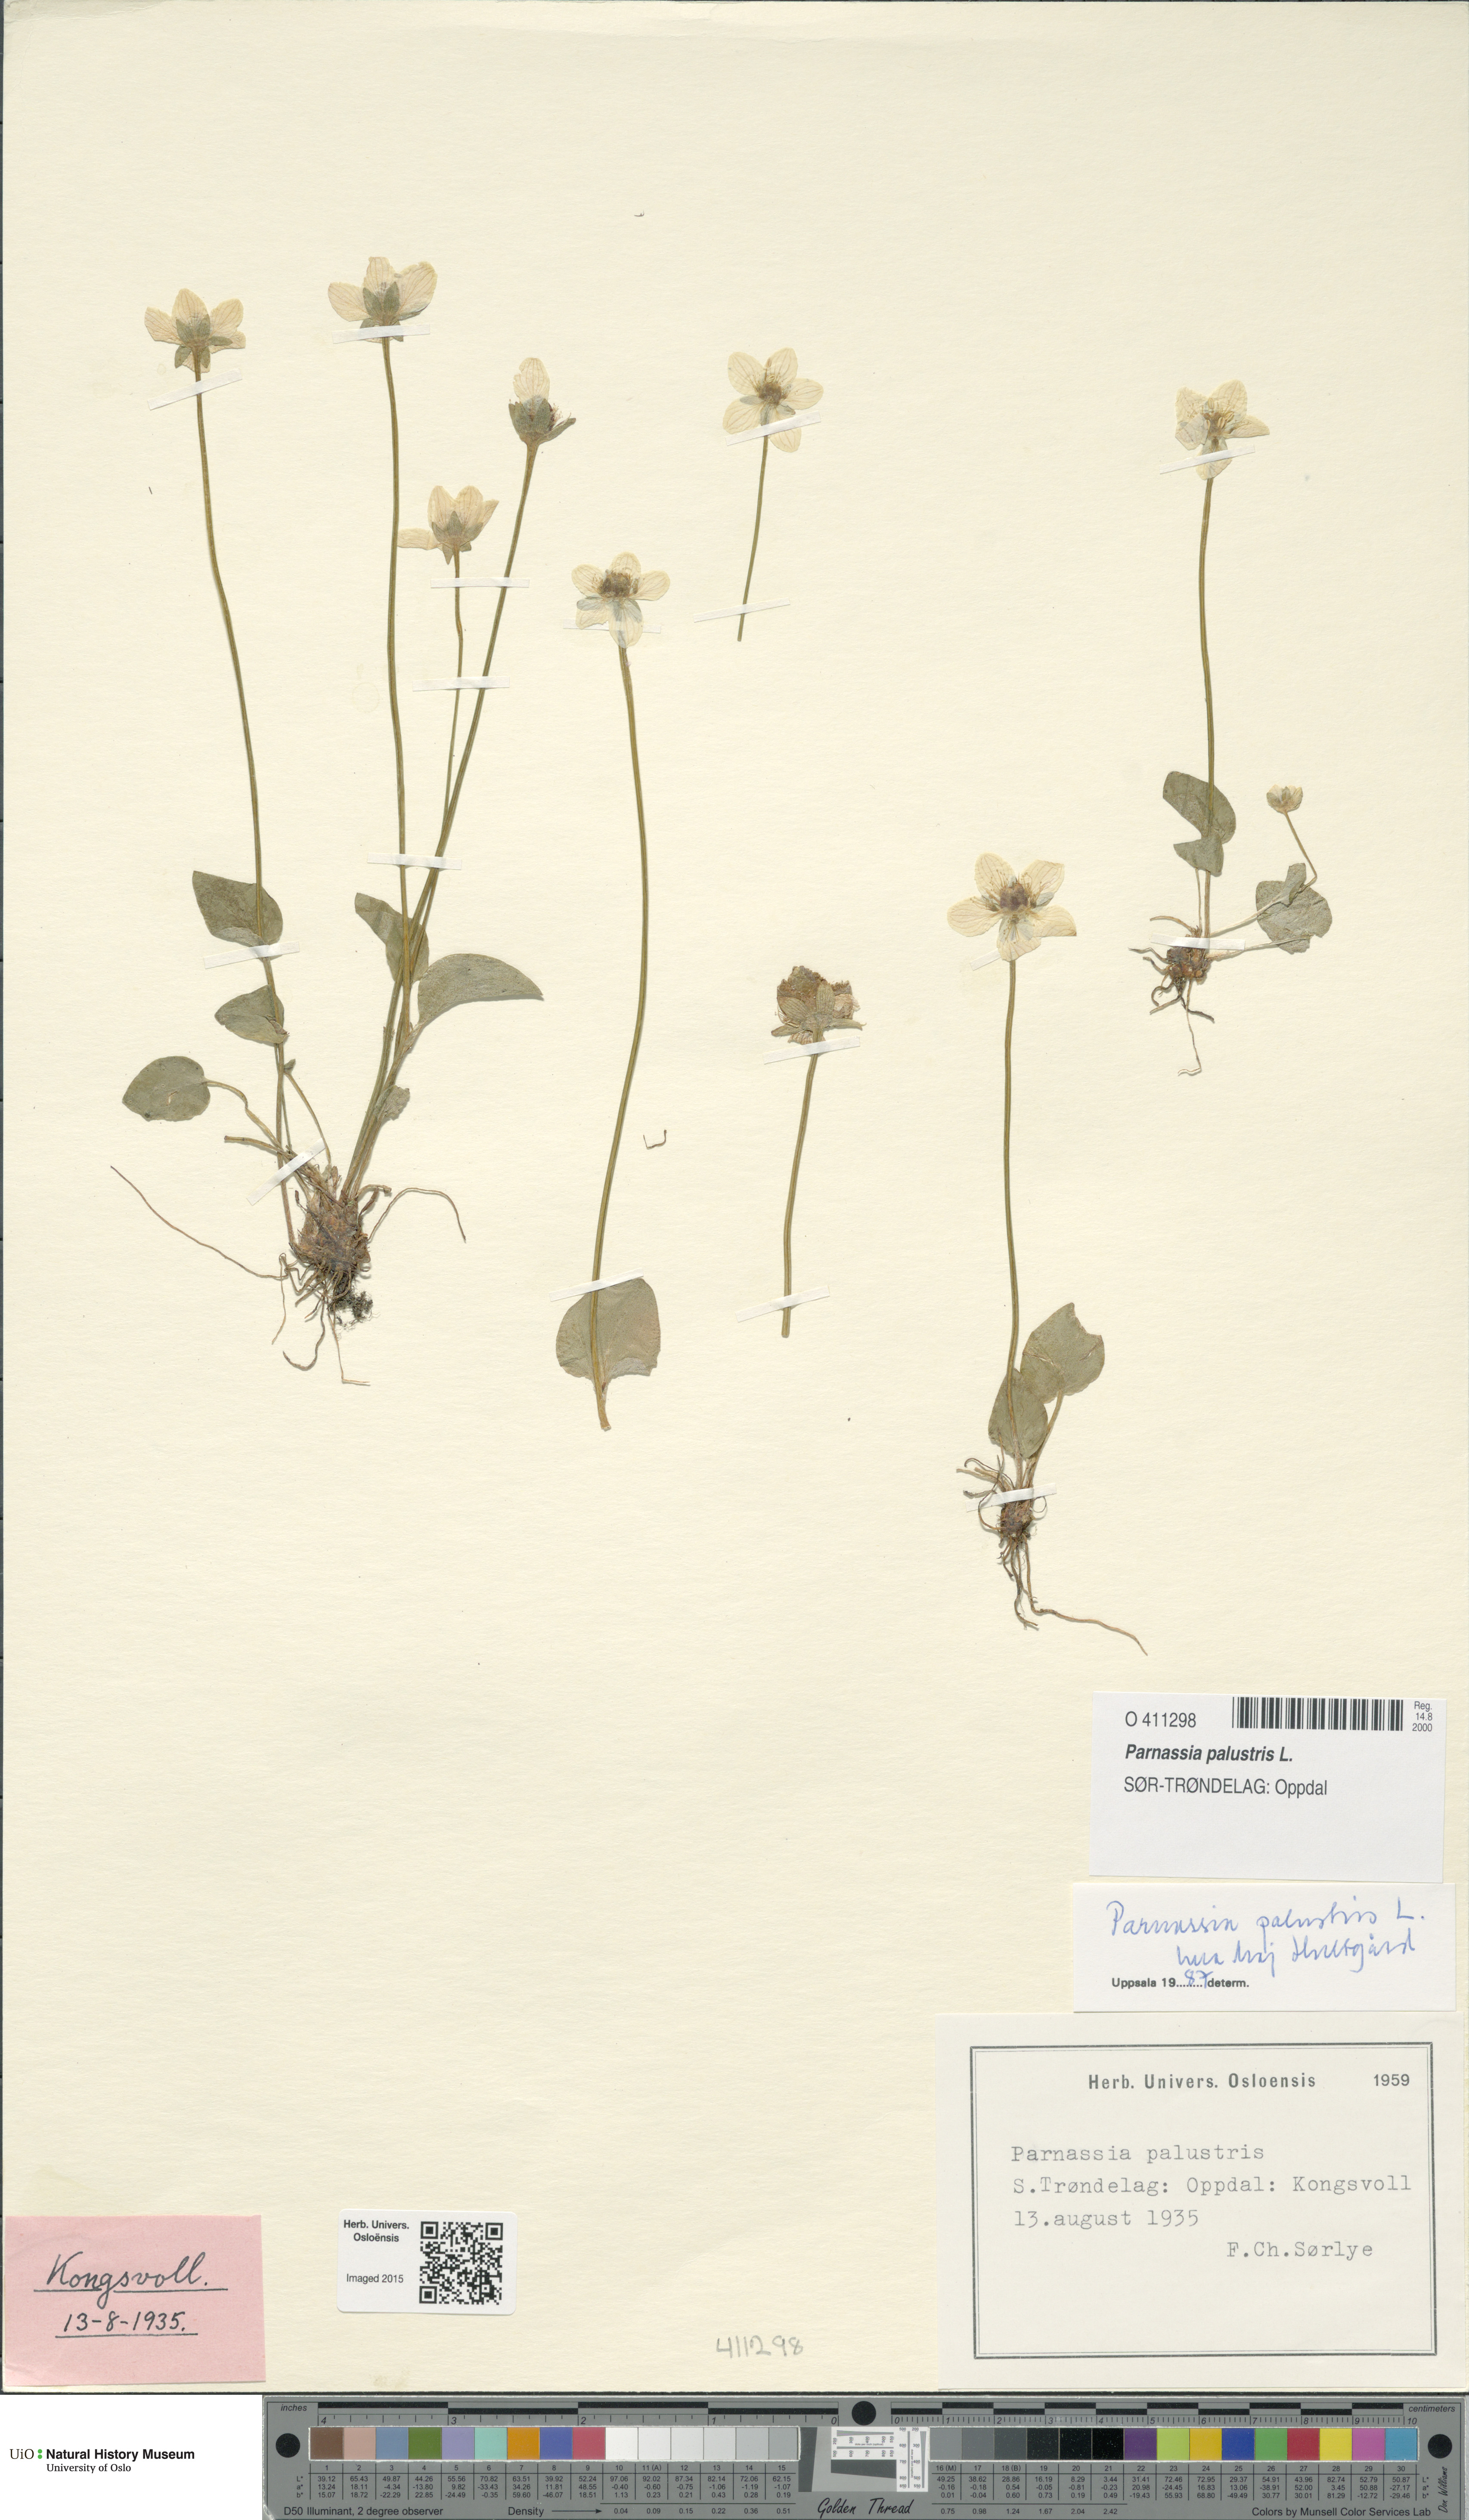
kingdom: Plantae
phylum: Tracheophyta
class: Magnoliopsida
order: Celastrales
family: Parnassiaceae
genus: Parnassia
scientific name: Parnassia palustris
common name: Grass-of-parnassus
